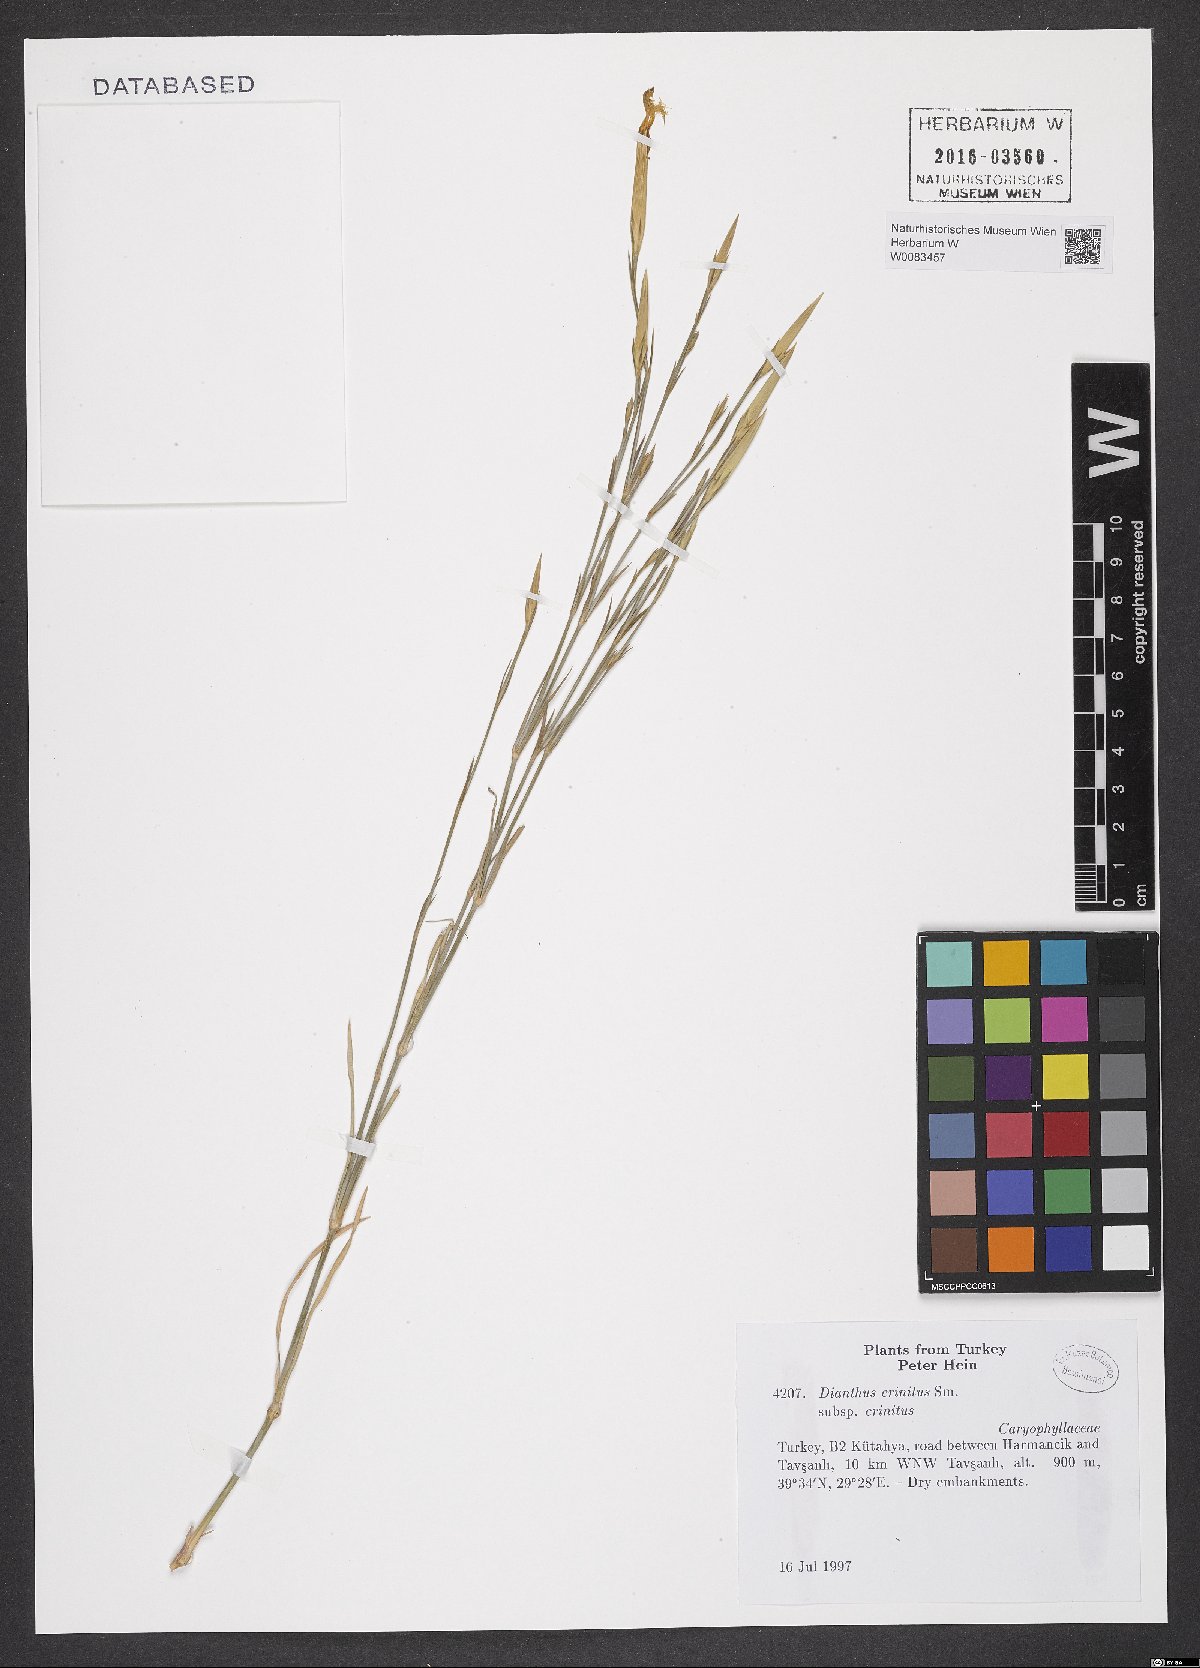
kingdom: Plantae
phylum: Tracheophyta
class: Magnoliopsida
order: Caryophyllales
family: Caryophyllaceae
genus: Dianthus
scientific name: Dianthus crinitus
